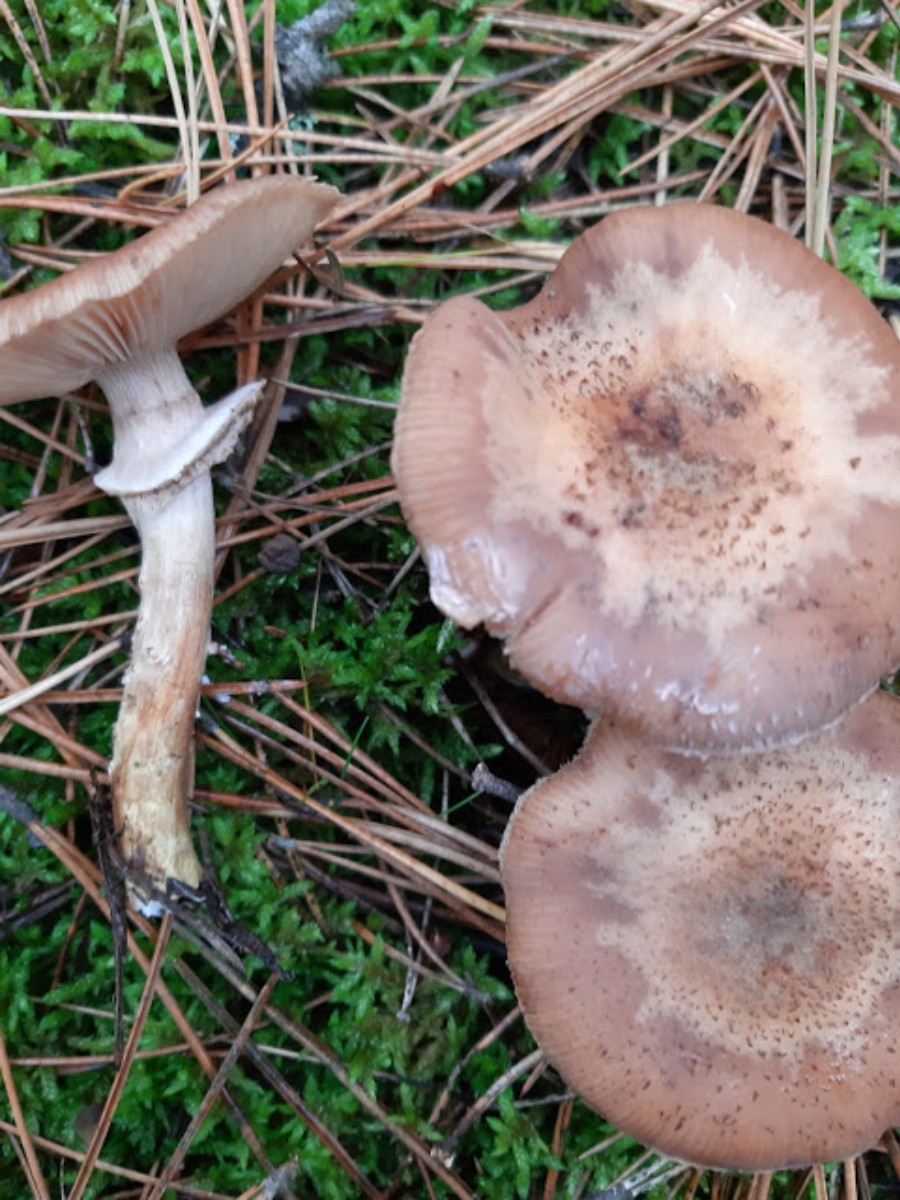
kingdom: Fungi
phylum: Basidiomycota
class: Agaricomycetes
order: Agaricales
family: Physalacriaceae
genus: Armillaria
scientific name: Armillaria ostoyae
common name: mørk honningsvamp
